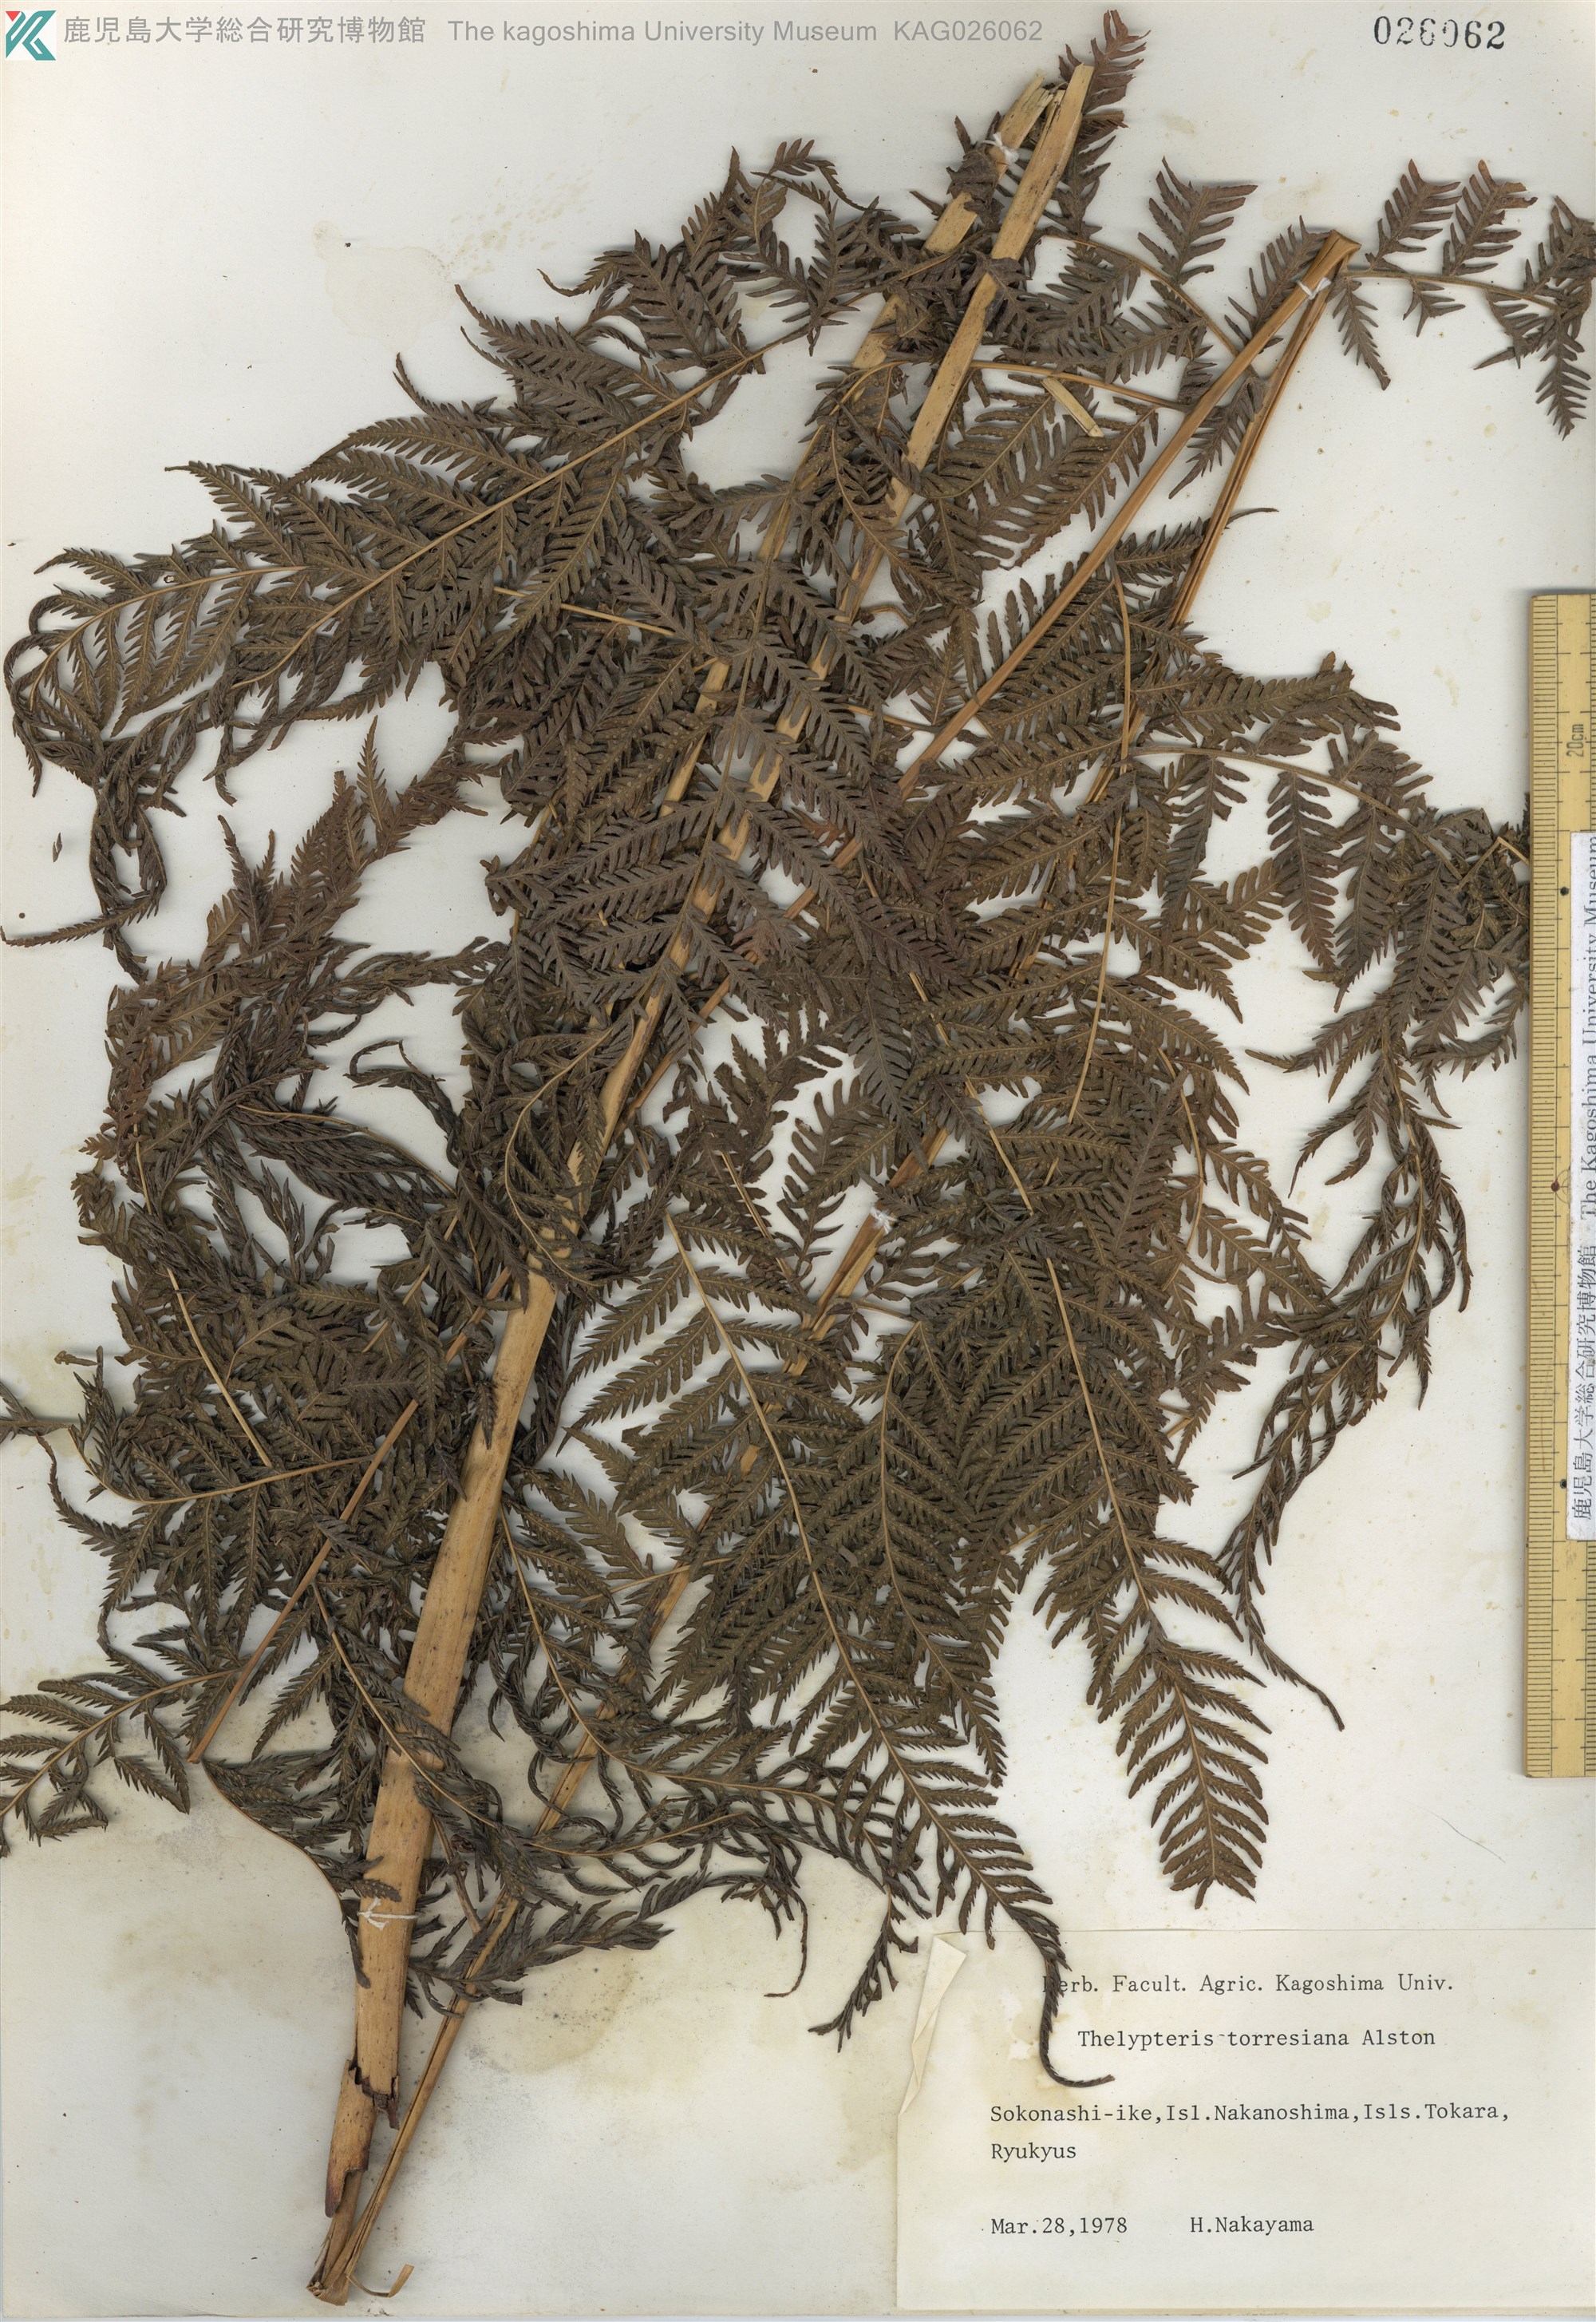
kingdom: Plantae
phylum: Tracheophyta
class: Polypodiopsida
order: Polypodiales
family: Thelypteridaceae
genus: Macrothelypteris
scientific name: Macrothelypteris oligophlebia
